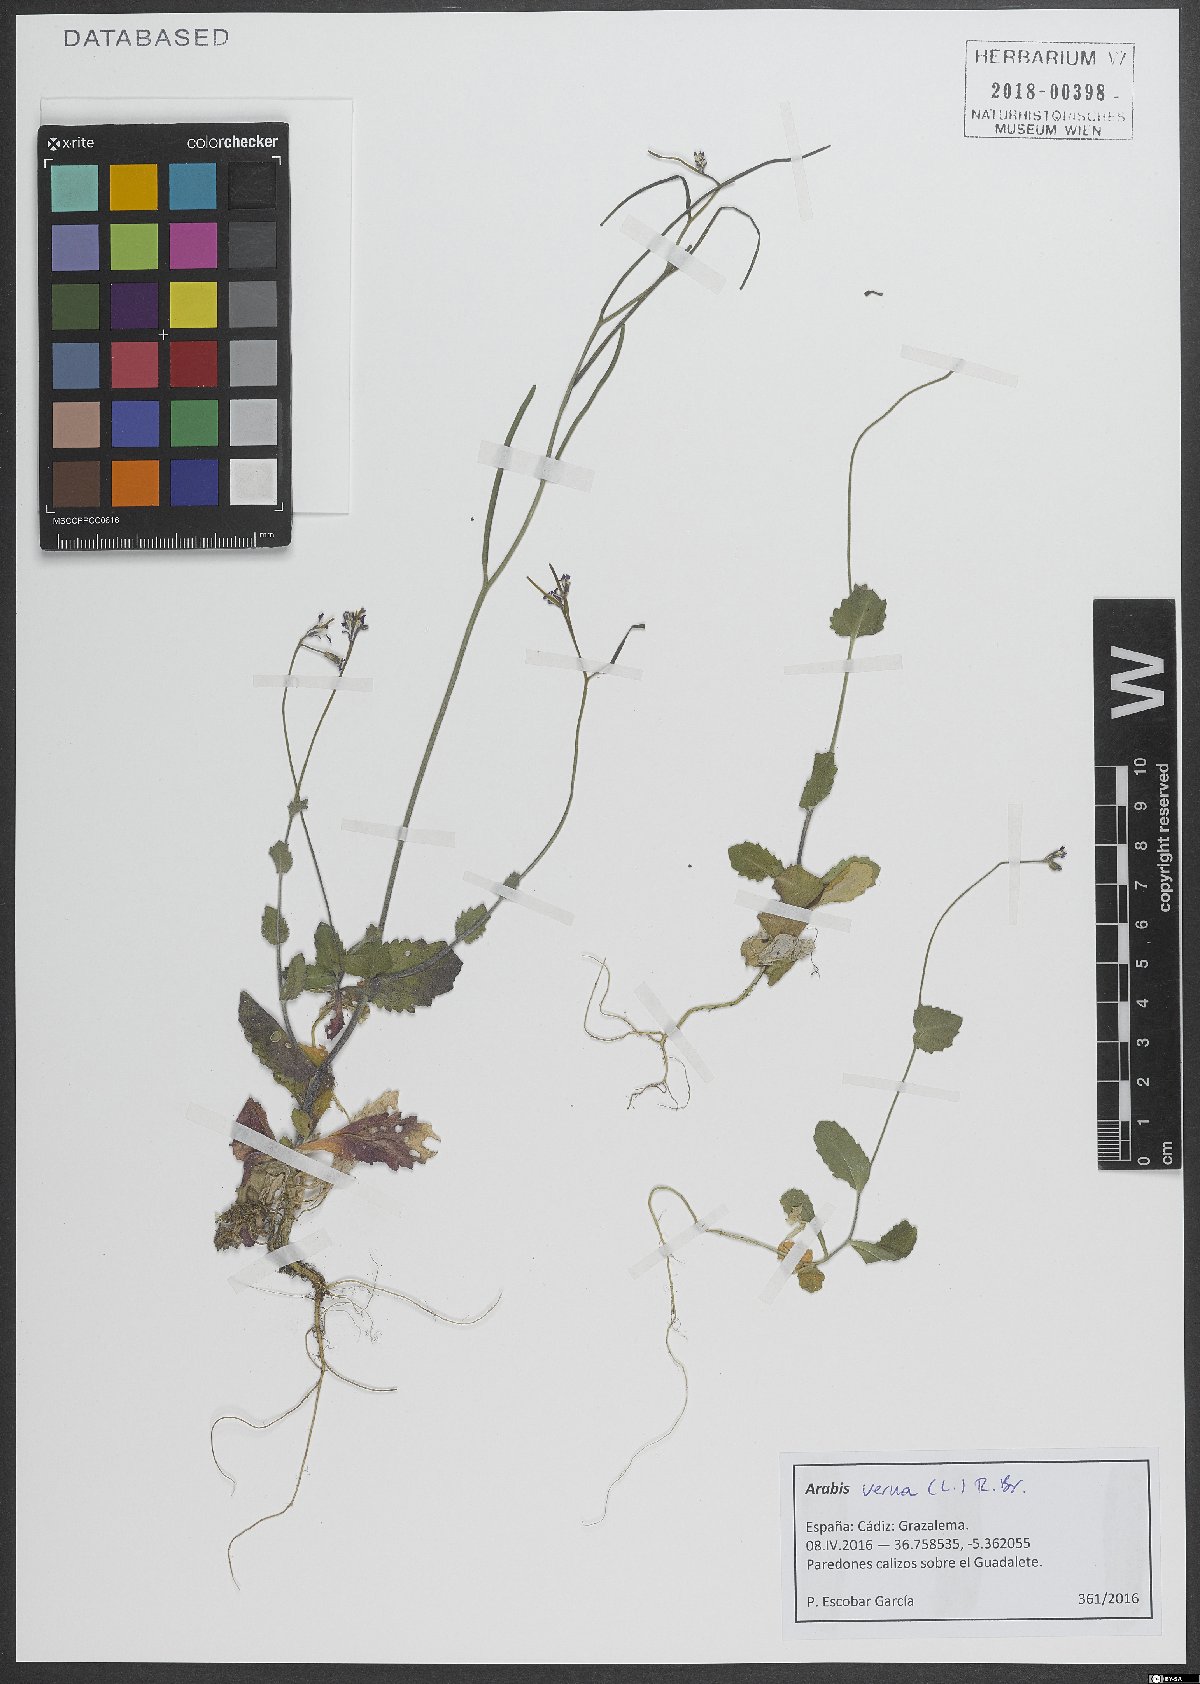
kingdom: Plantae
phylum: Tracheophyta
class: Magnoliopsida
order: Brassicales
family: Brassicaceae
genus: Arabis
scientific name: Arabis verna
